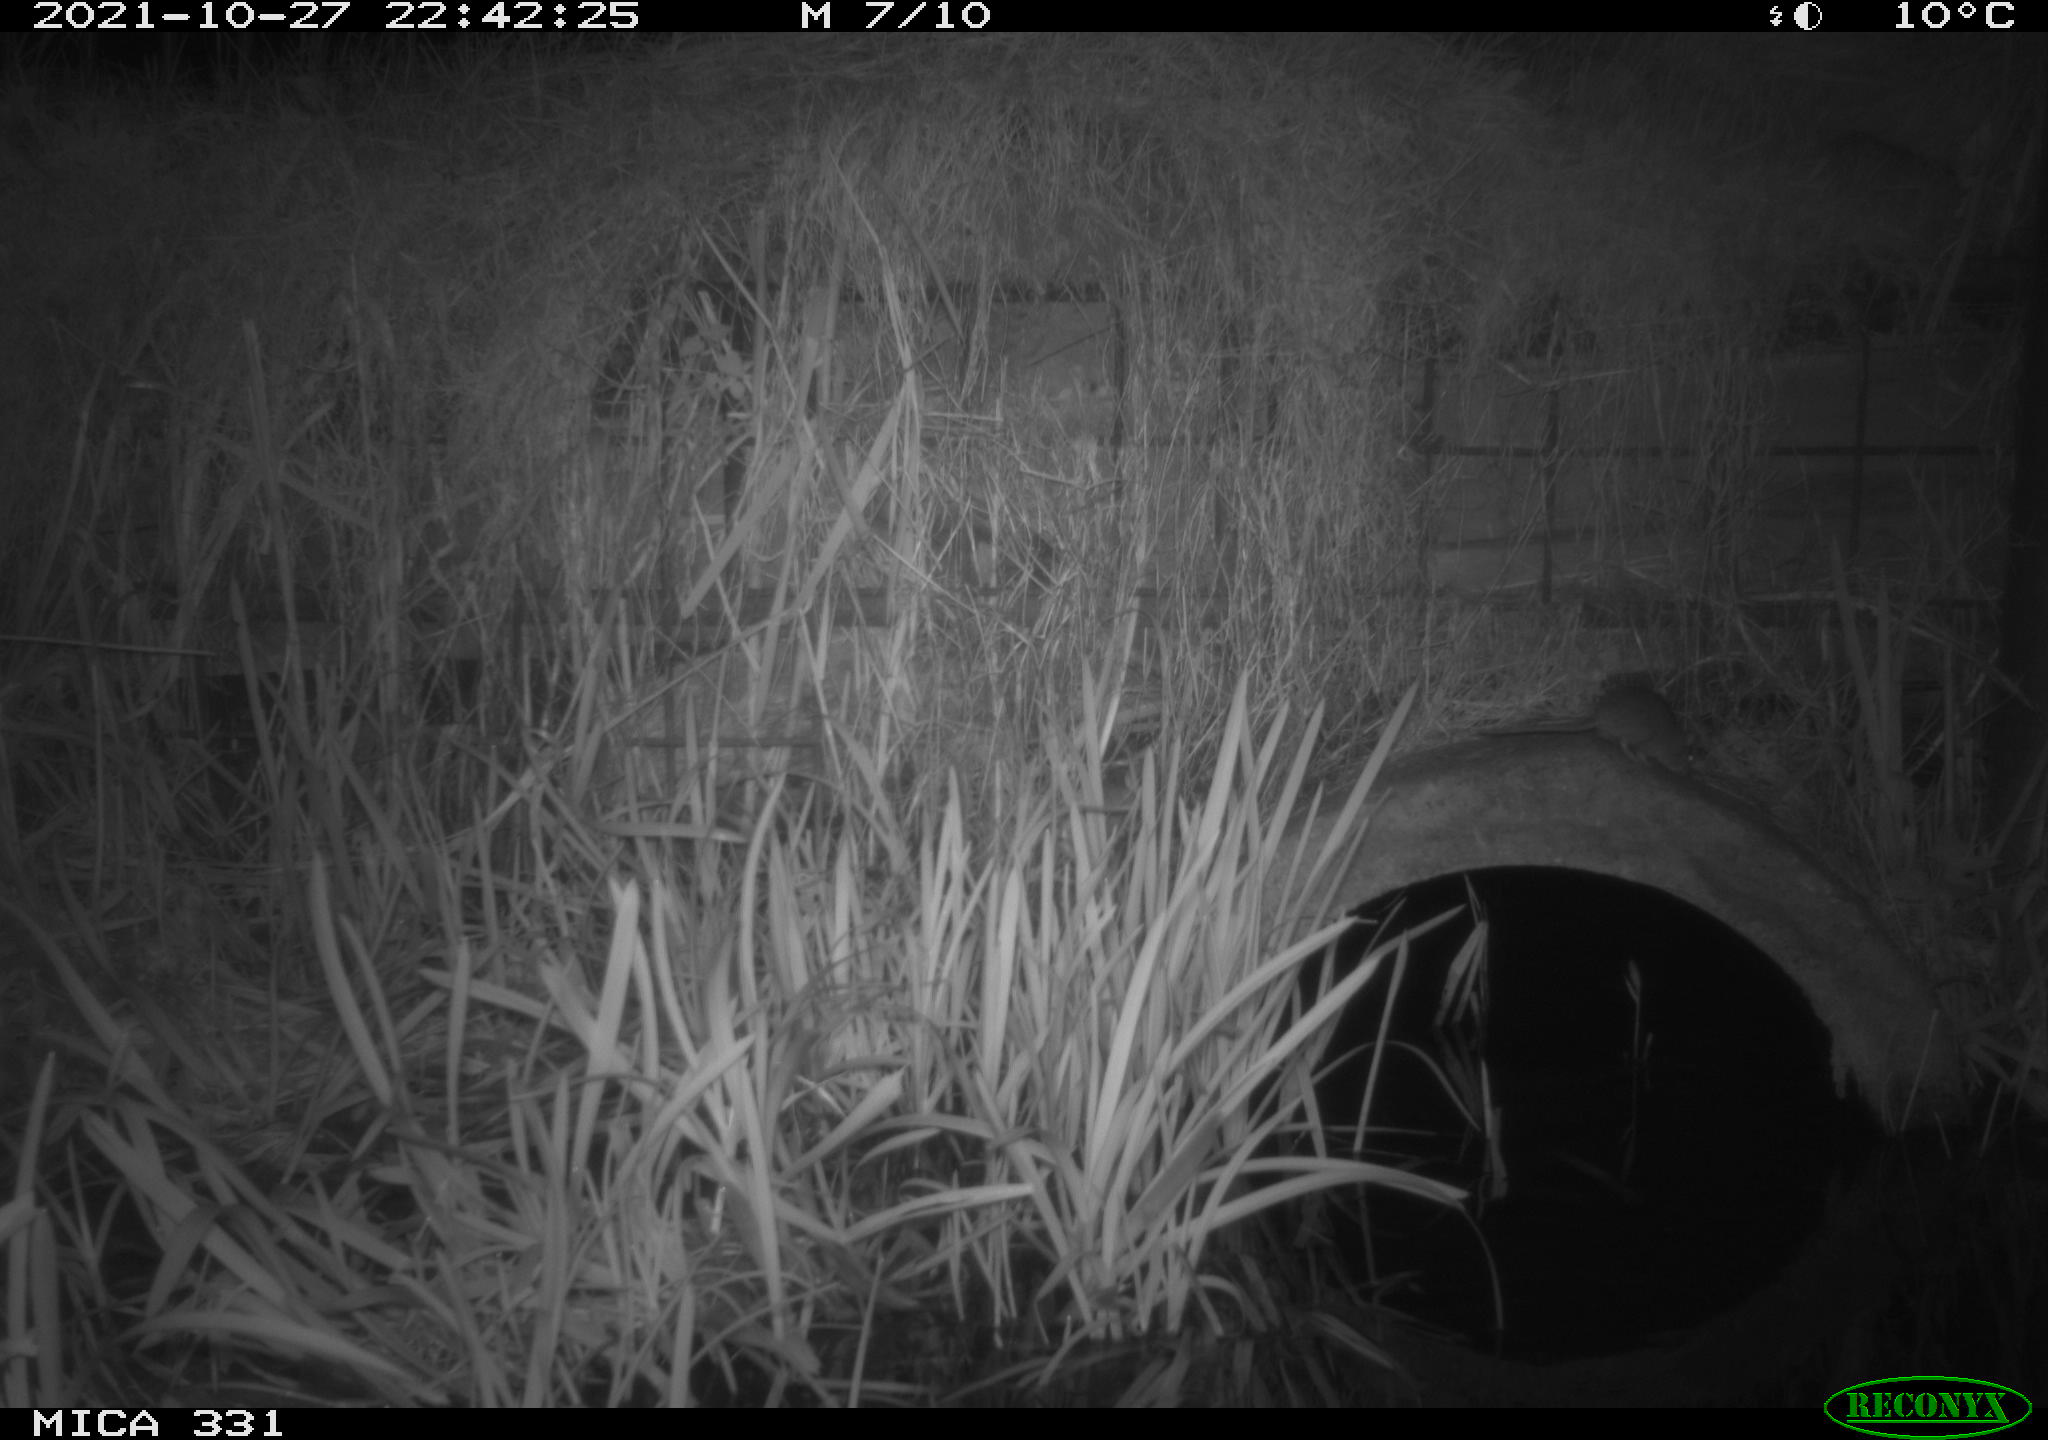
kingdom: Animalia
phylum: Chordata
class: Mammalia
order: Rodentia
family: Muridae
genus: Rattus
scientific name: Rattus norvegicus
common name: Brown rat
